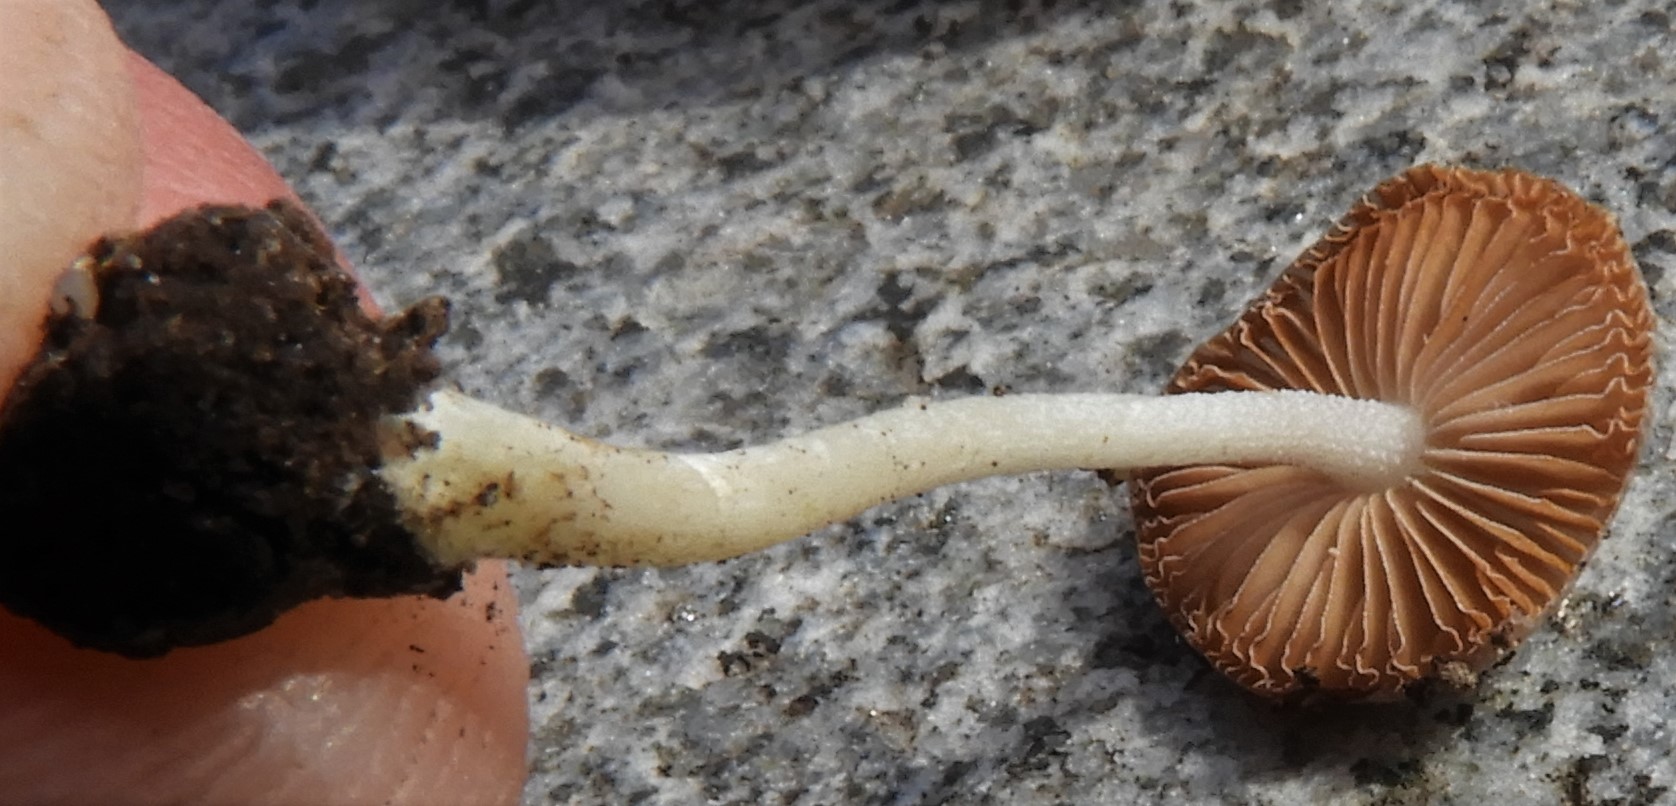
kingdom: Fungi
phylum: Basidiomycota
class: Agaricomycetes
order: Agaricales
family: Pluteaceae
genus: Pluteus
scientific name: Pluteus salicinus
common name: stiv skærmhat
